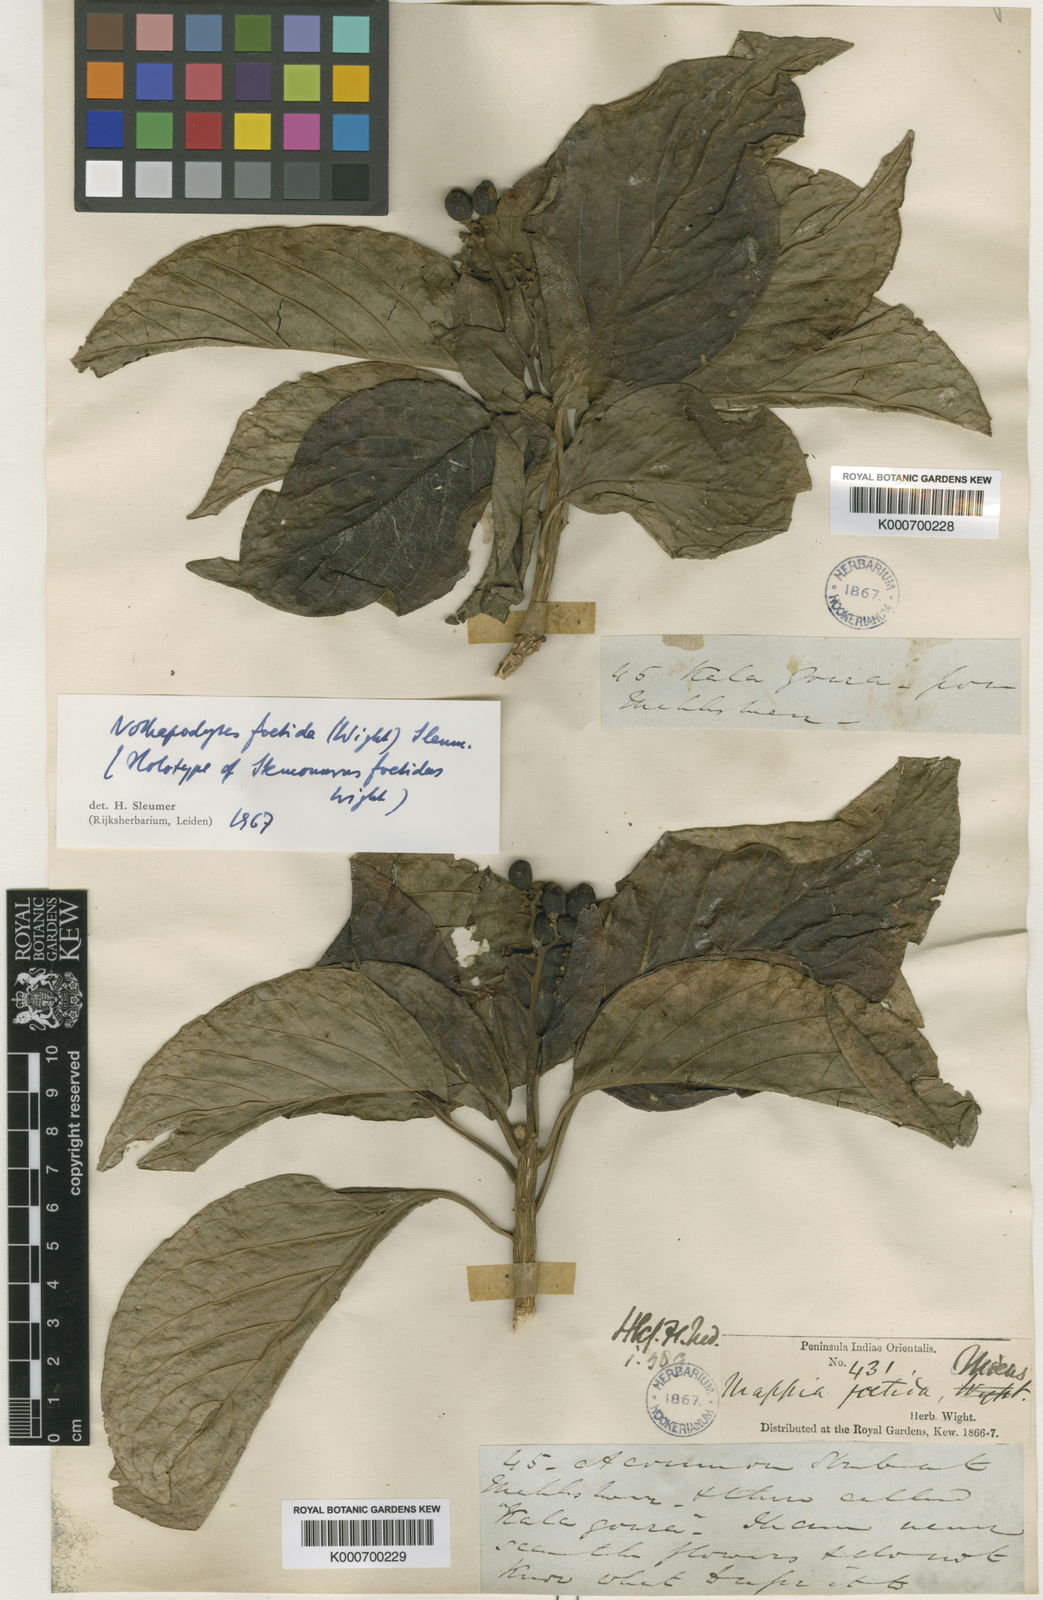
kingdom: Plantae
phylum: Tracheophyta
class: Magnoliopsida
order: Icacinales
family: Icacinaceae
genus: Nothapodytes
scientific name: Nothapodytes nimmoniana
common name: Nothapodytes
